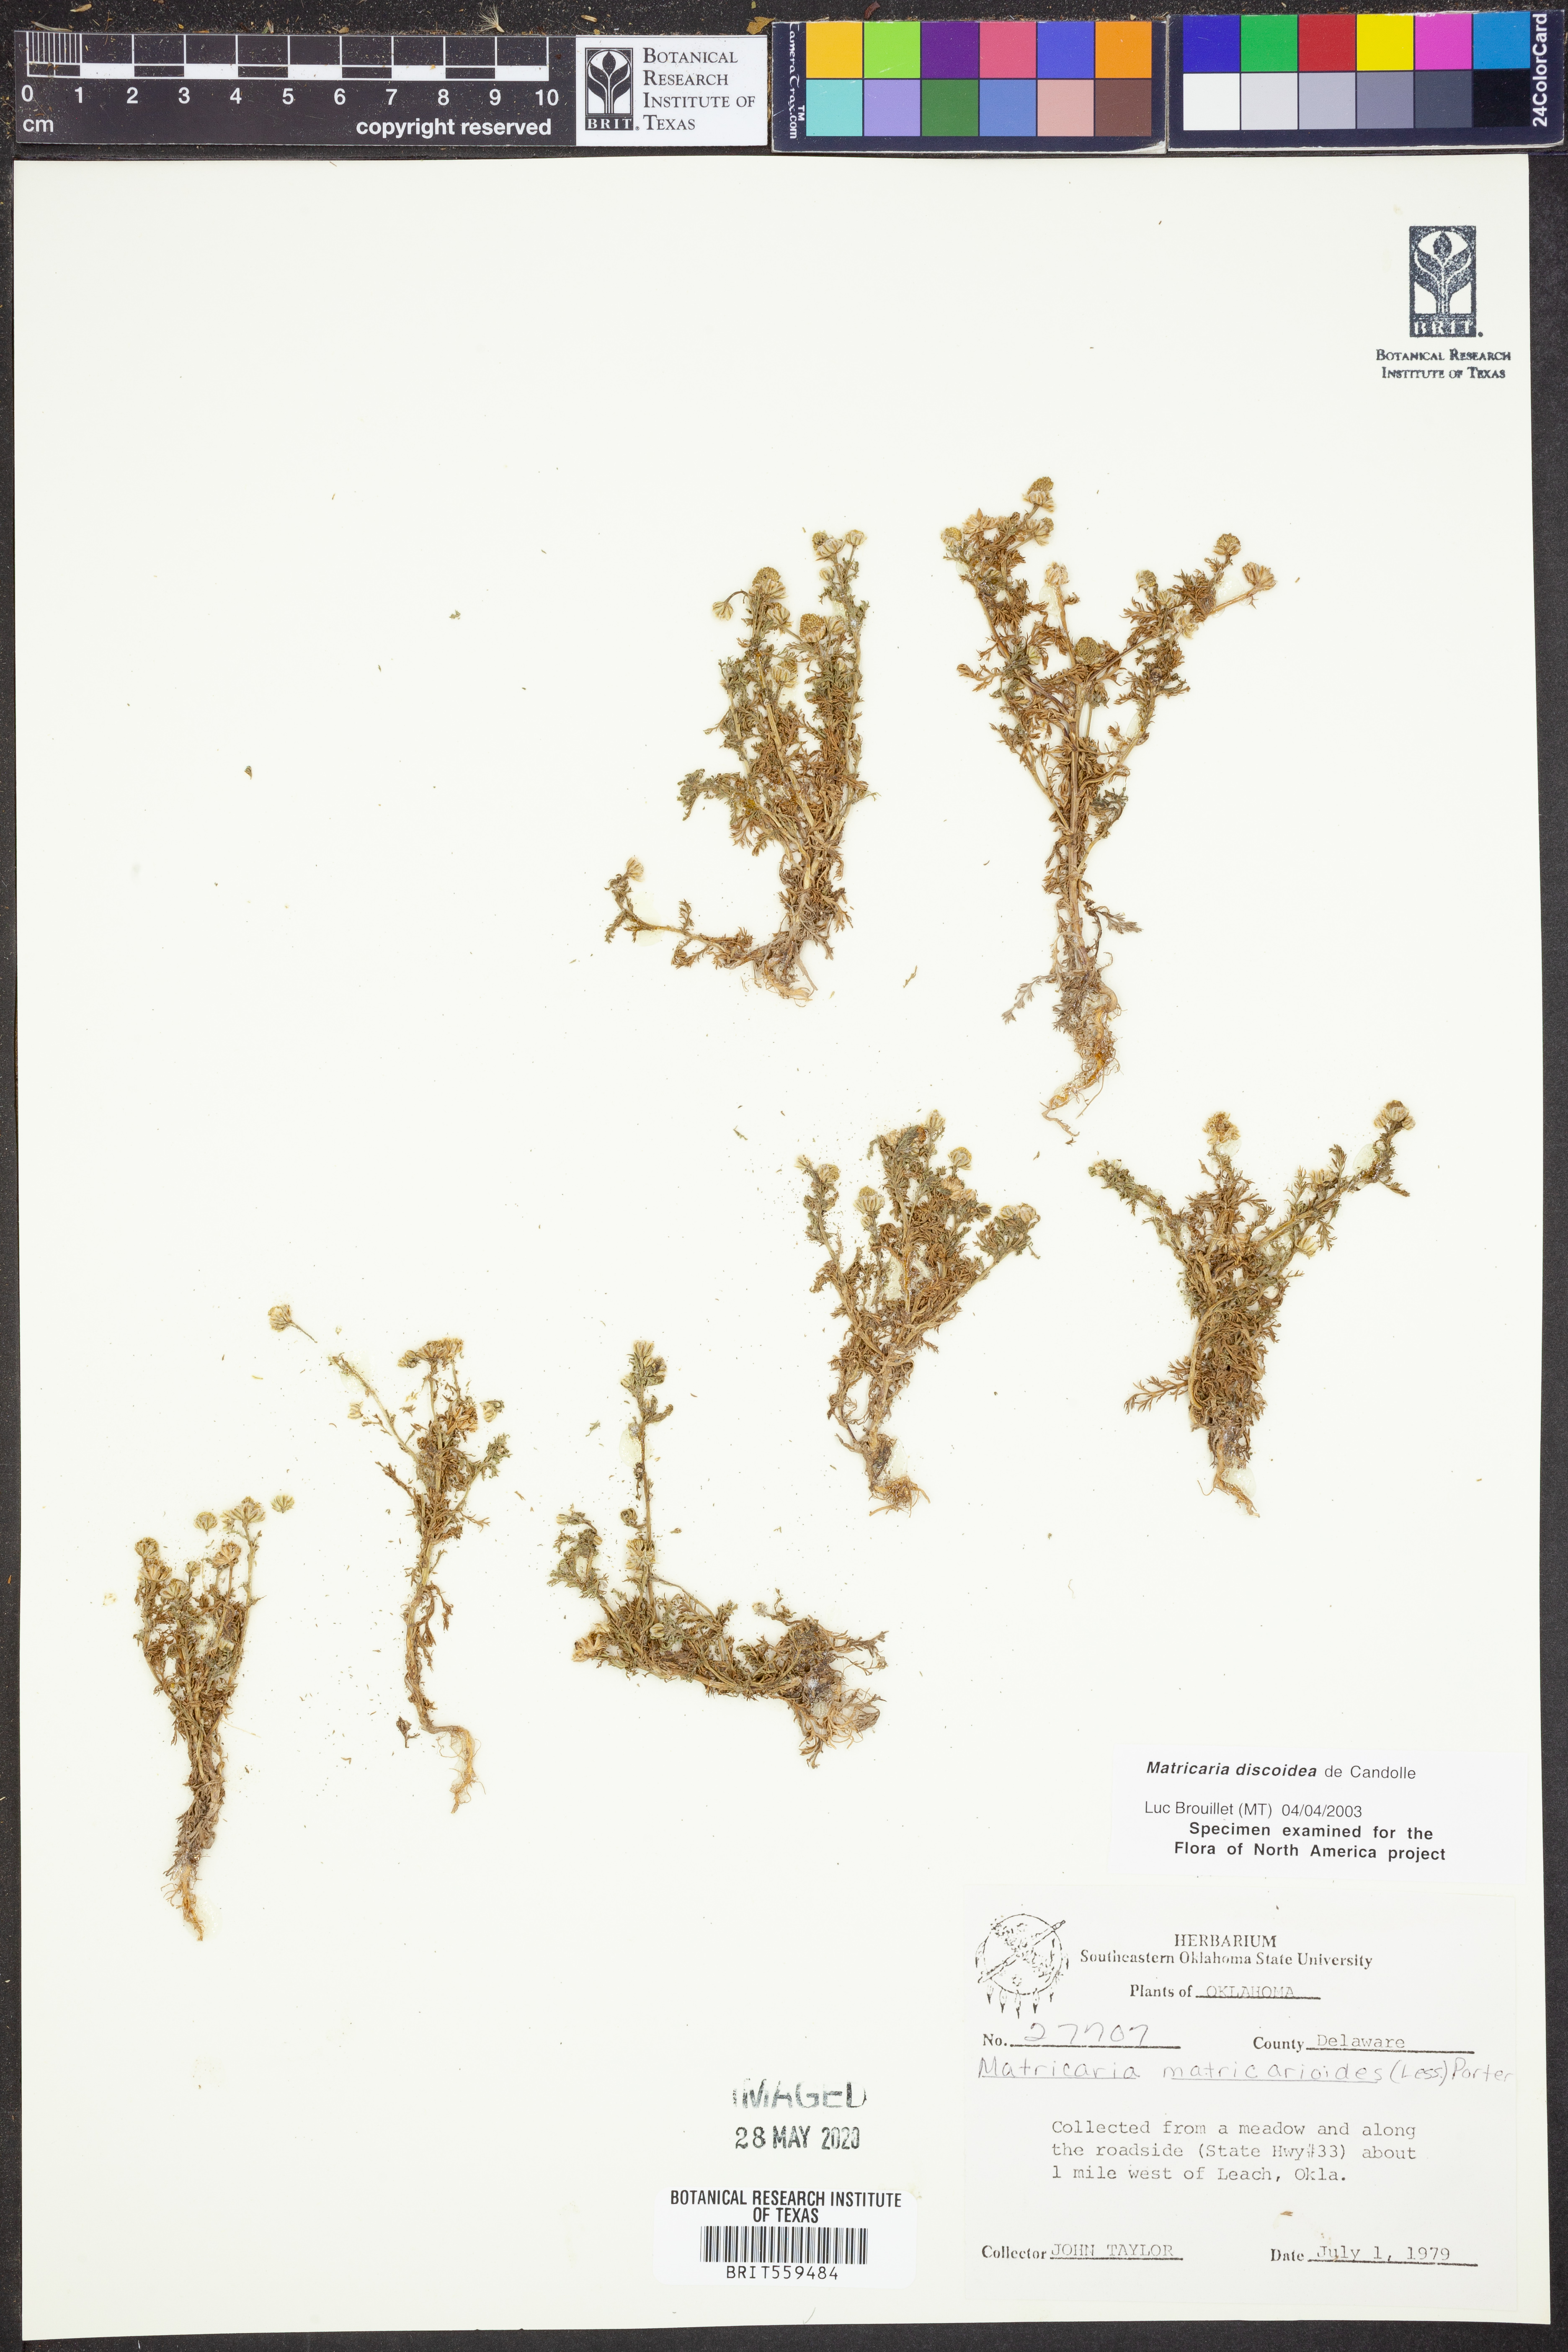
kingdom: Plantae
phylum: Tracheophyta
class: Magnoliopsida
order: Asterales
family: Asteraceae
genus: Matricaria
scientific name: Matricaria discoidea
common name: Disc mayweed
